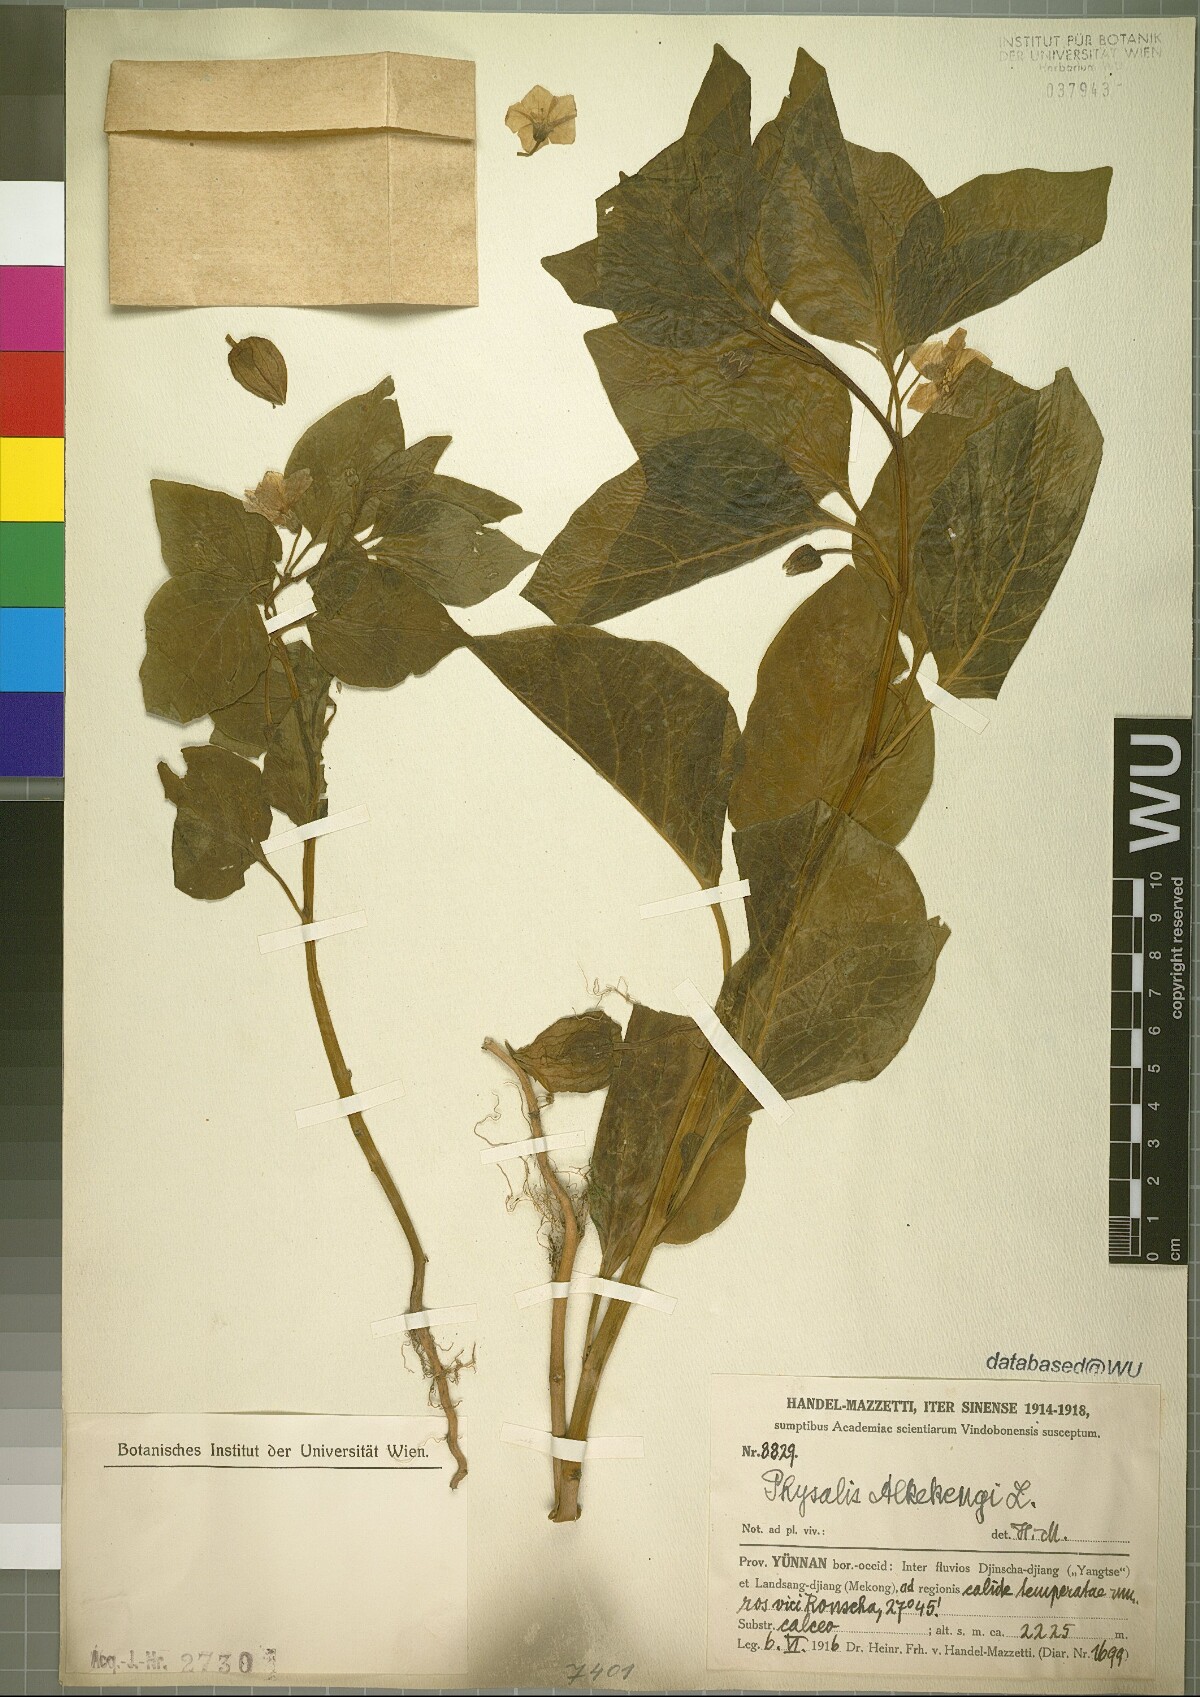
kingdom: Plantae
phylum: Tracheophyta
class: Magnoliopsida
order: Solanales
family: Solanaceae
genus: Alkekengi
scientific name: Alkekengi officinarum
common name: Japanese-lantern
